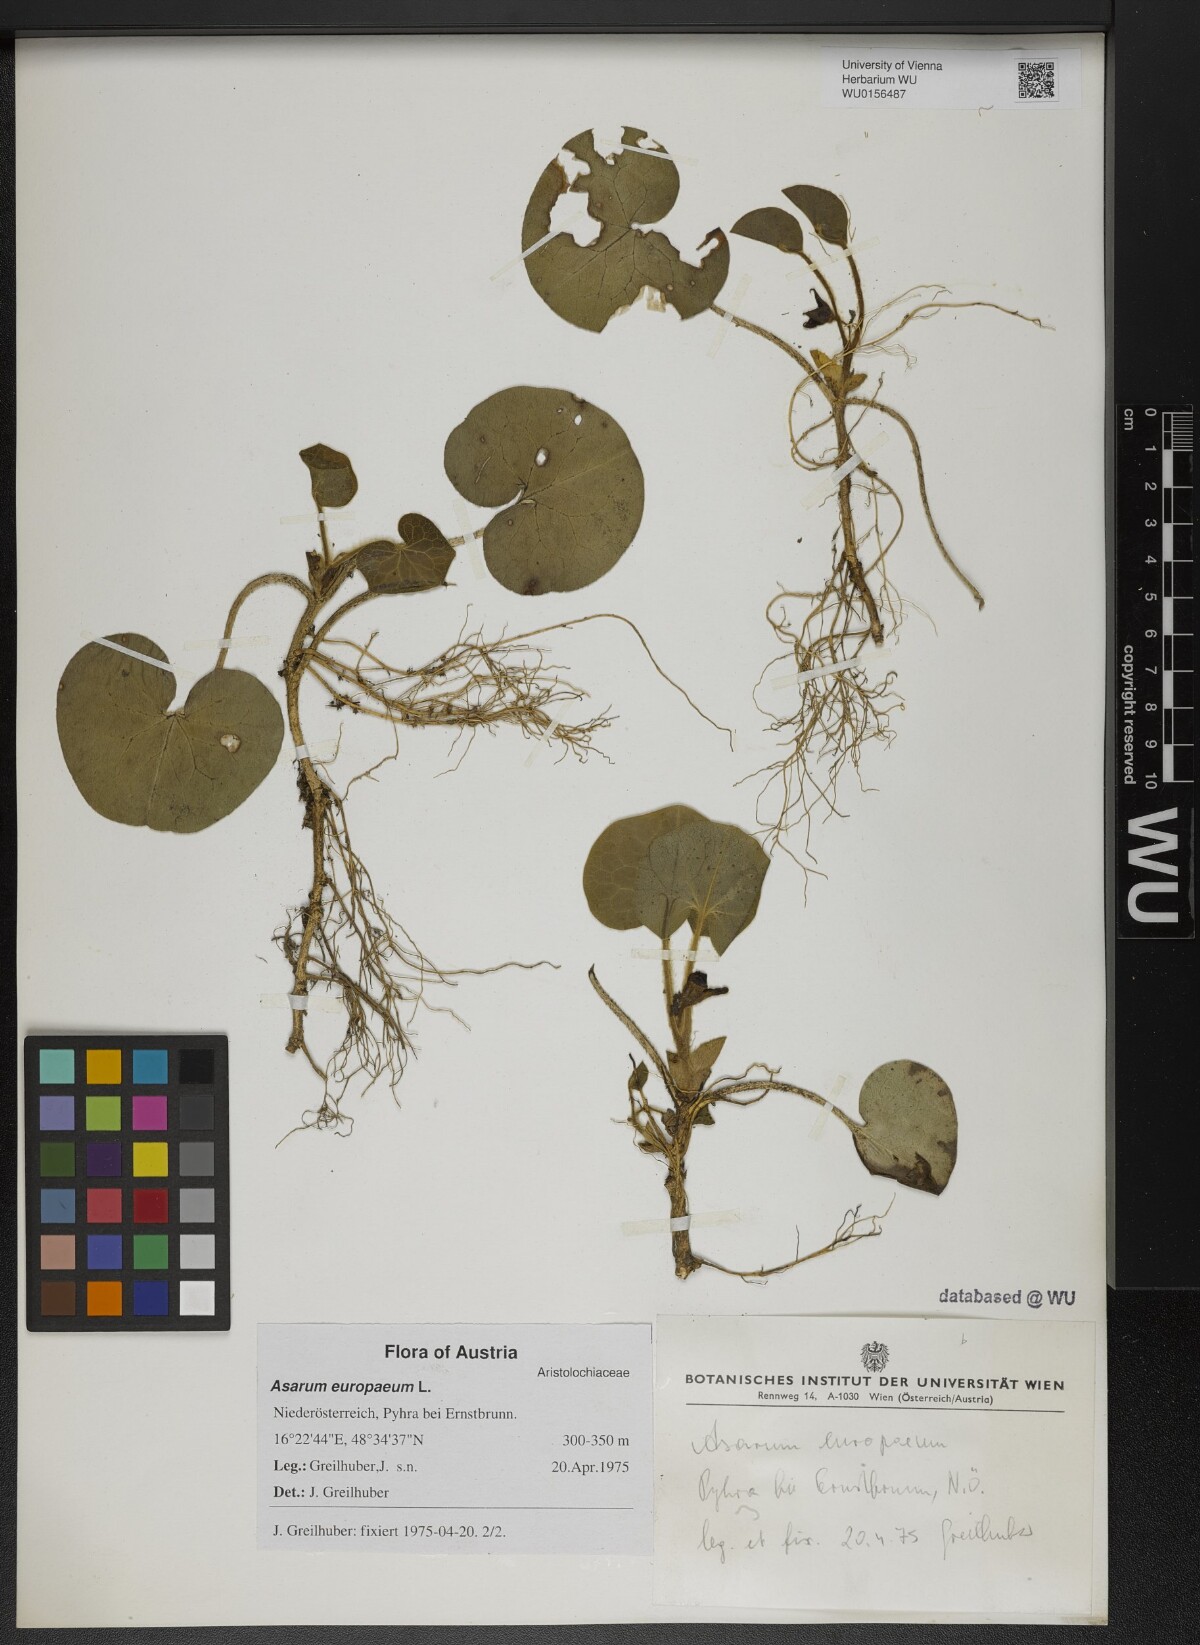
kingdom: Plantae
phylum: Tracheophyta
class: Magnoliopsida
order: Piperales
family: Aristolochiaceae
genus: Asarum
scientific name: Asarum europaeum
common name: Asarabacca
